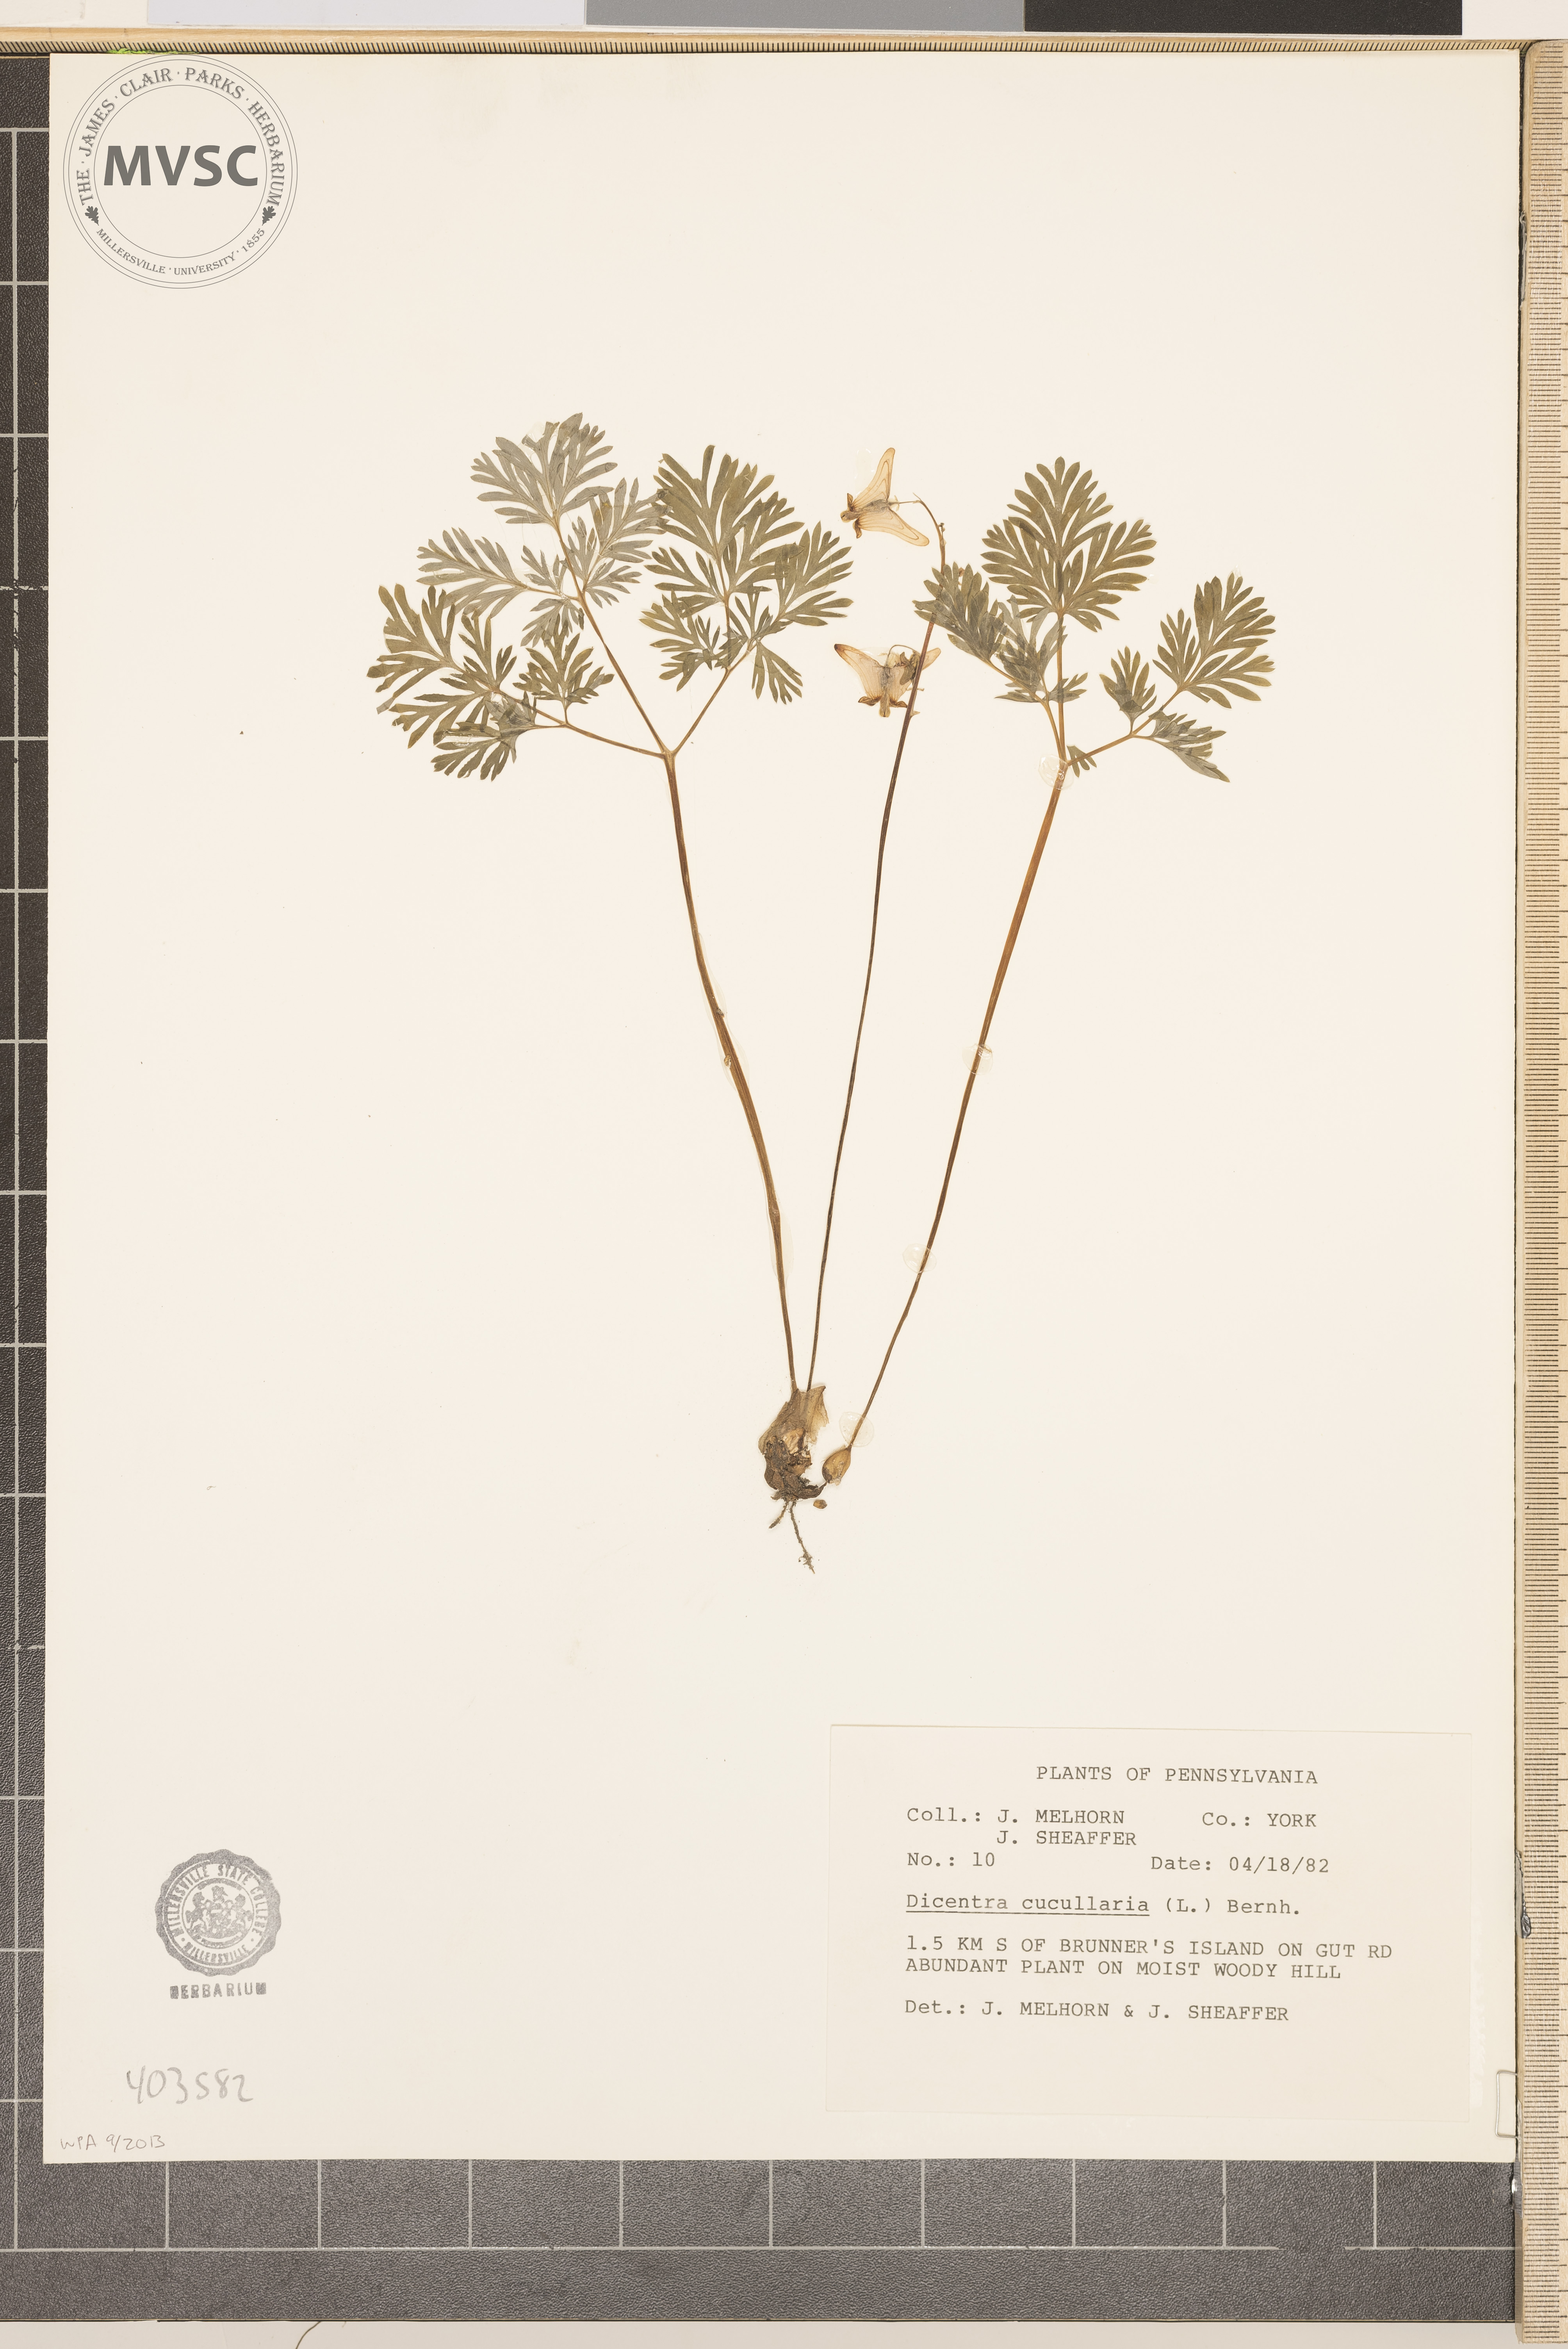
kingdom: Plantae
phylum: Tracheophyta
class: Magnoliopsida
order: Ranunculales
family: Papaveraceae
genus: Dicentra
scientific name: Dicentra cucullaria
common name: Dutchman's Breeches
